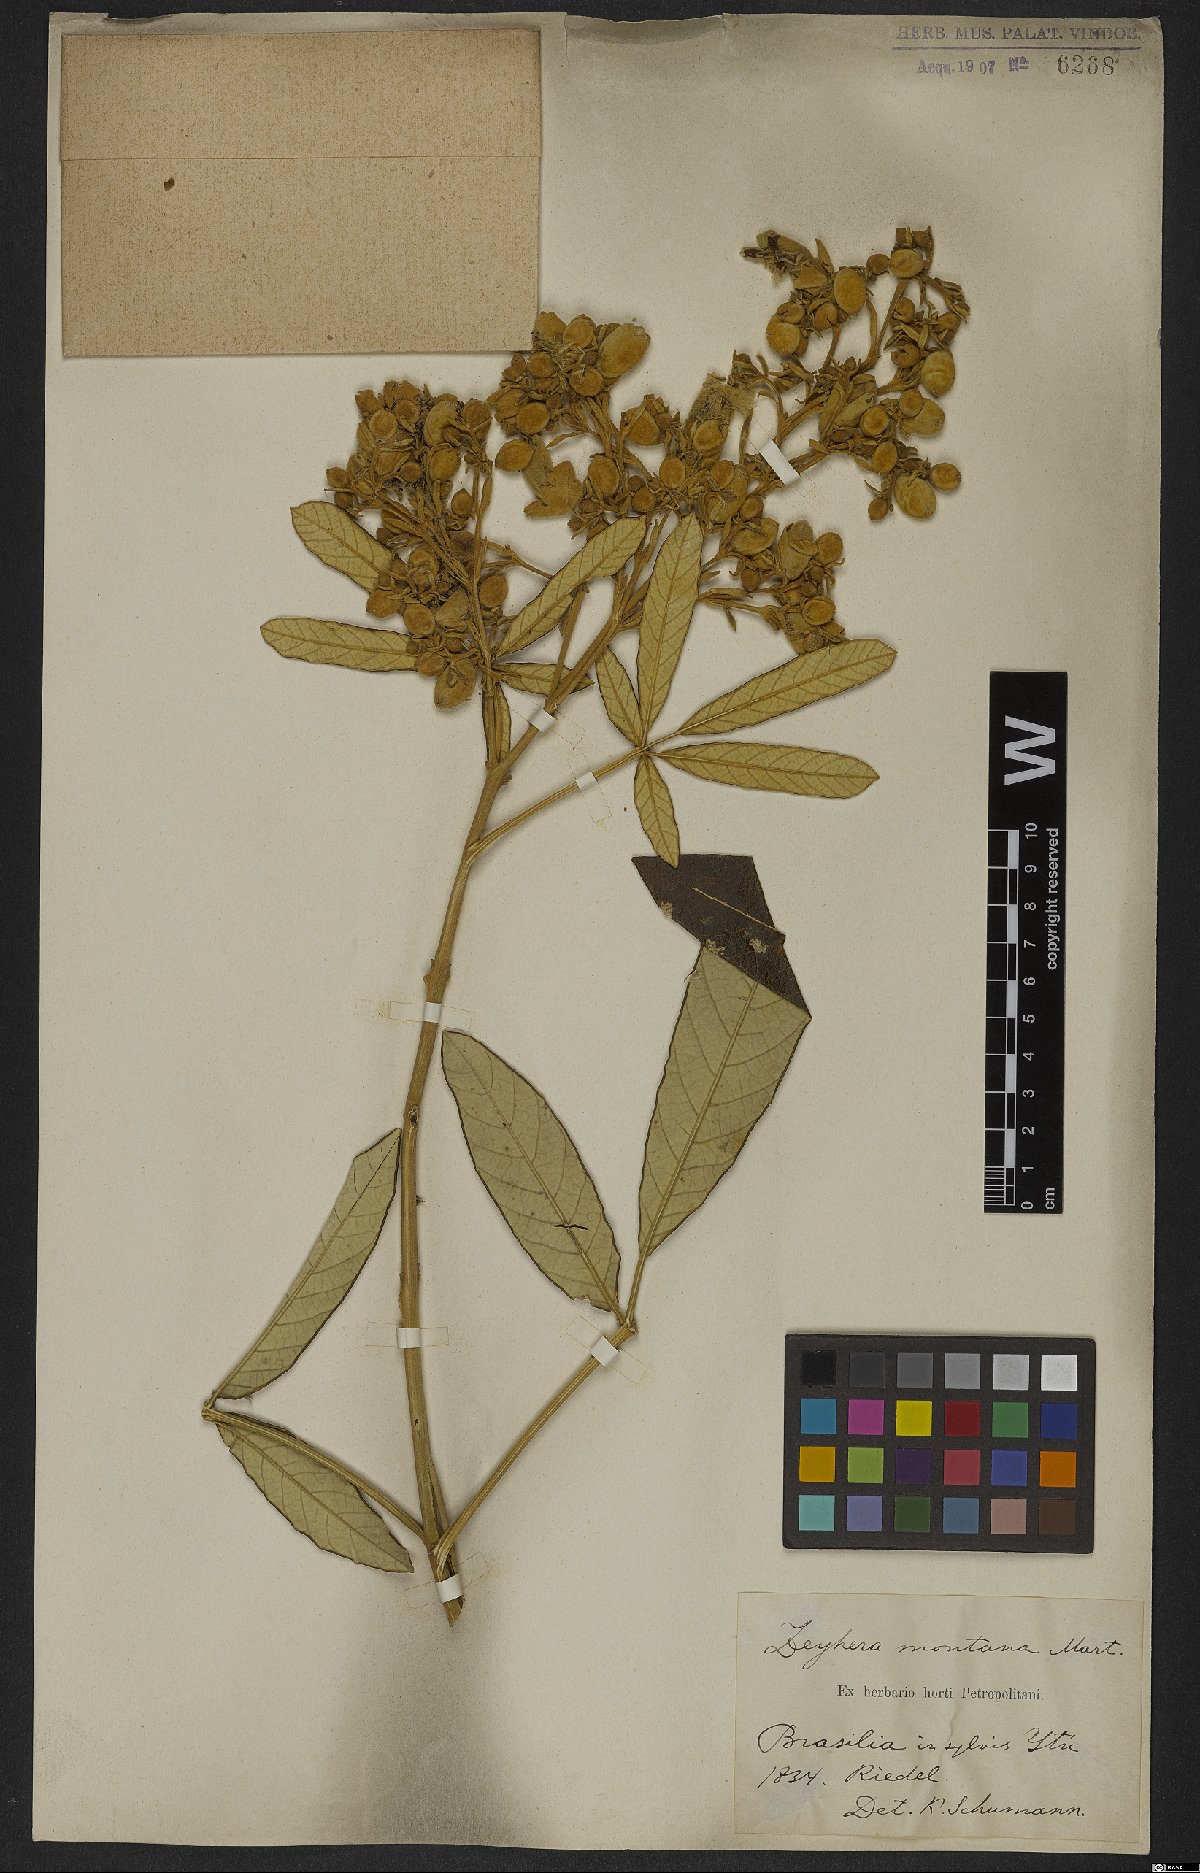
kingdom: Plantae
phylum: Tracheophyta
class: Magnoliopsida
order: Lamiales
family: Bignoniaceae
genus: Zeyheria
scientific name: Zeyheria montana
